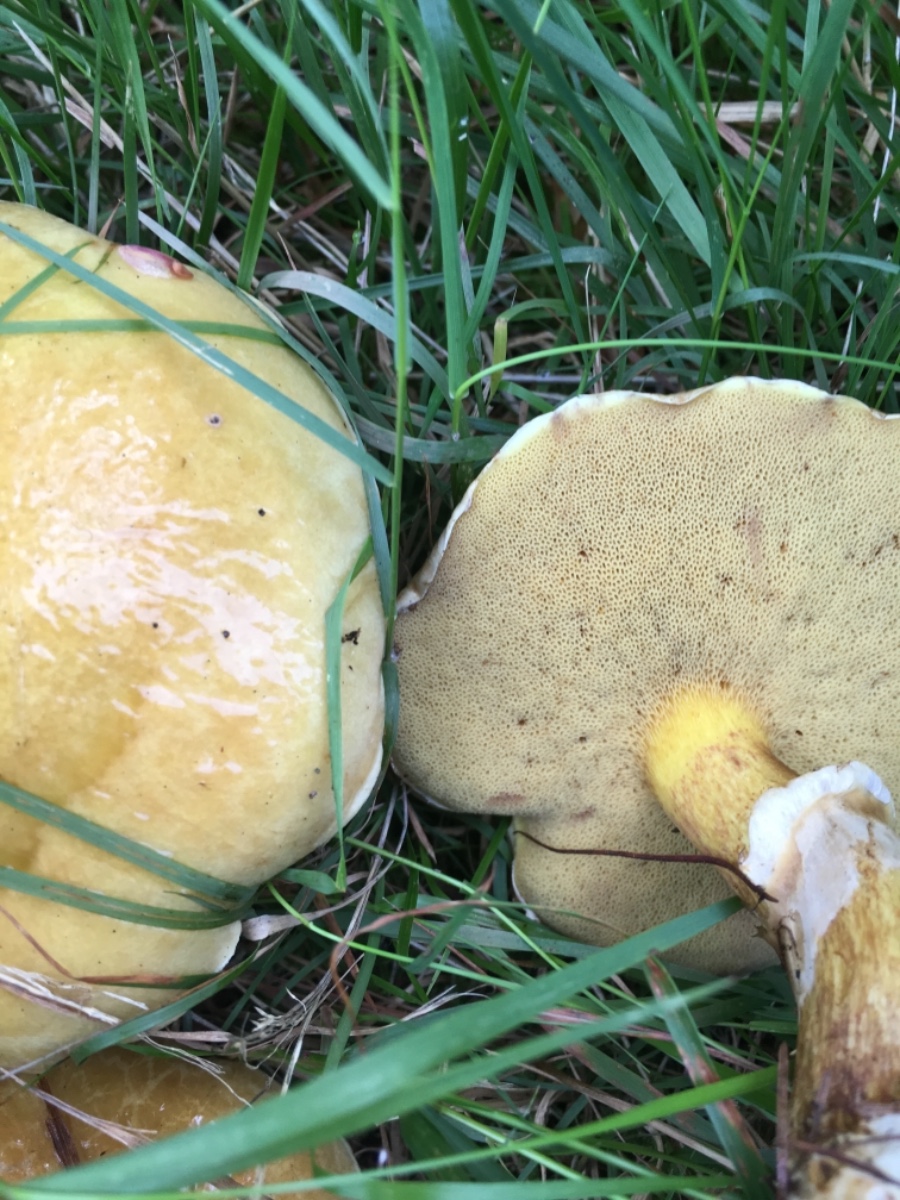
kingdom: Fungi
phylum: Basidiomycota
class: Agaricomycetes
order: Boletales
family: Suillaceae
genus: Suillus
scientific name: Suillus grevillei
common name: lærke-slimrørhat
